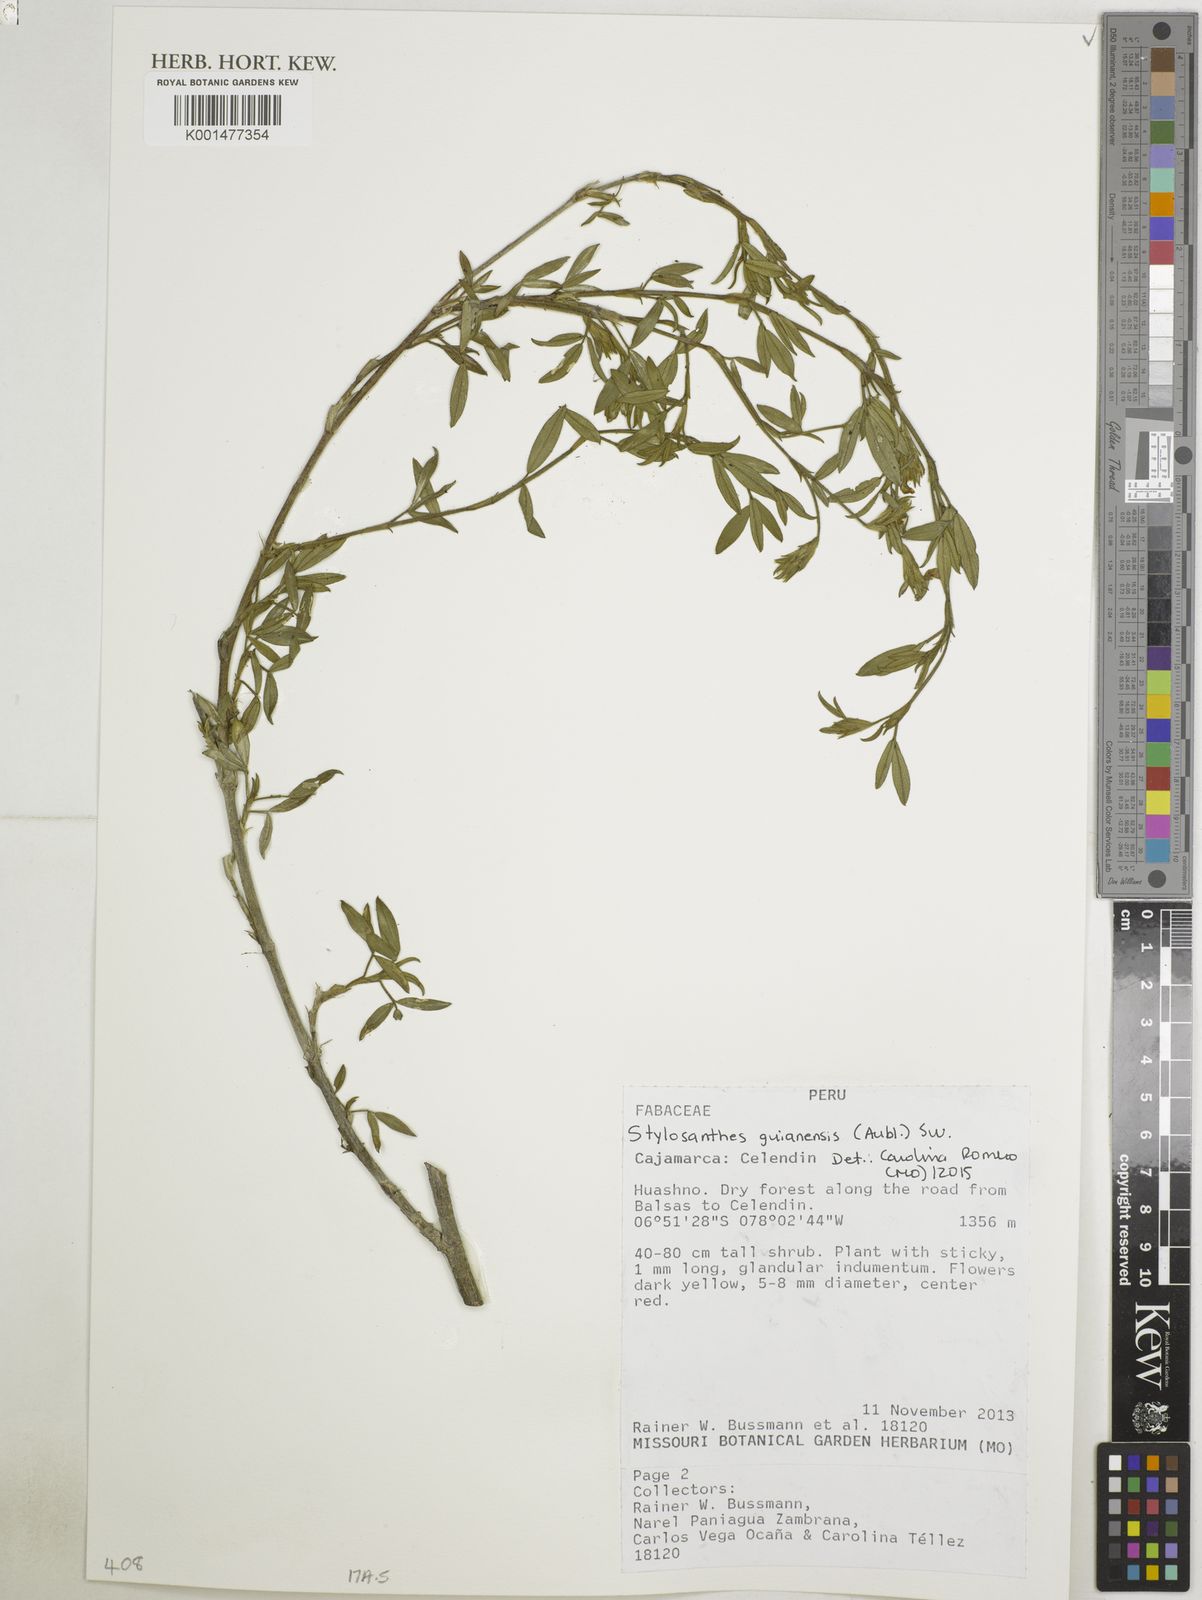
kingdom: Plantae
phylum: Tracheophyta
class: Magnoliopsida
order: Fabales
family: Fabaceae
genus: Stylosanthes
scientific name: Stylosanthes guianensis
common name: Pencil flower
